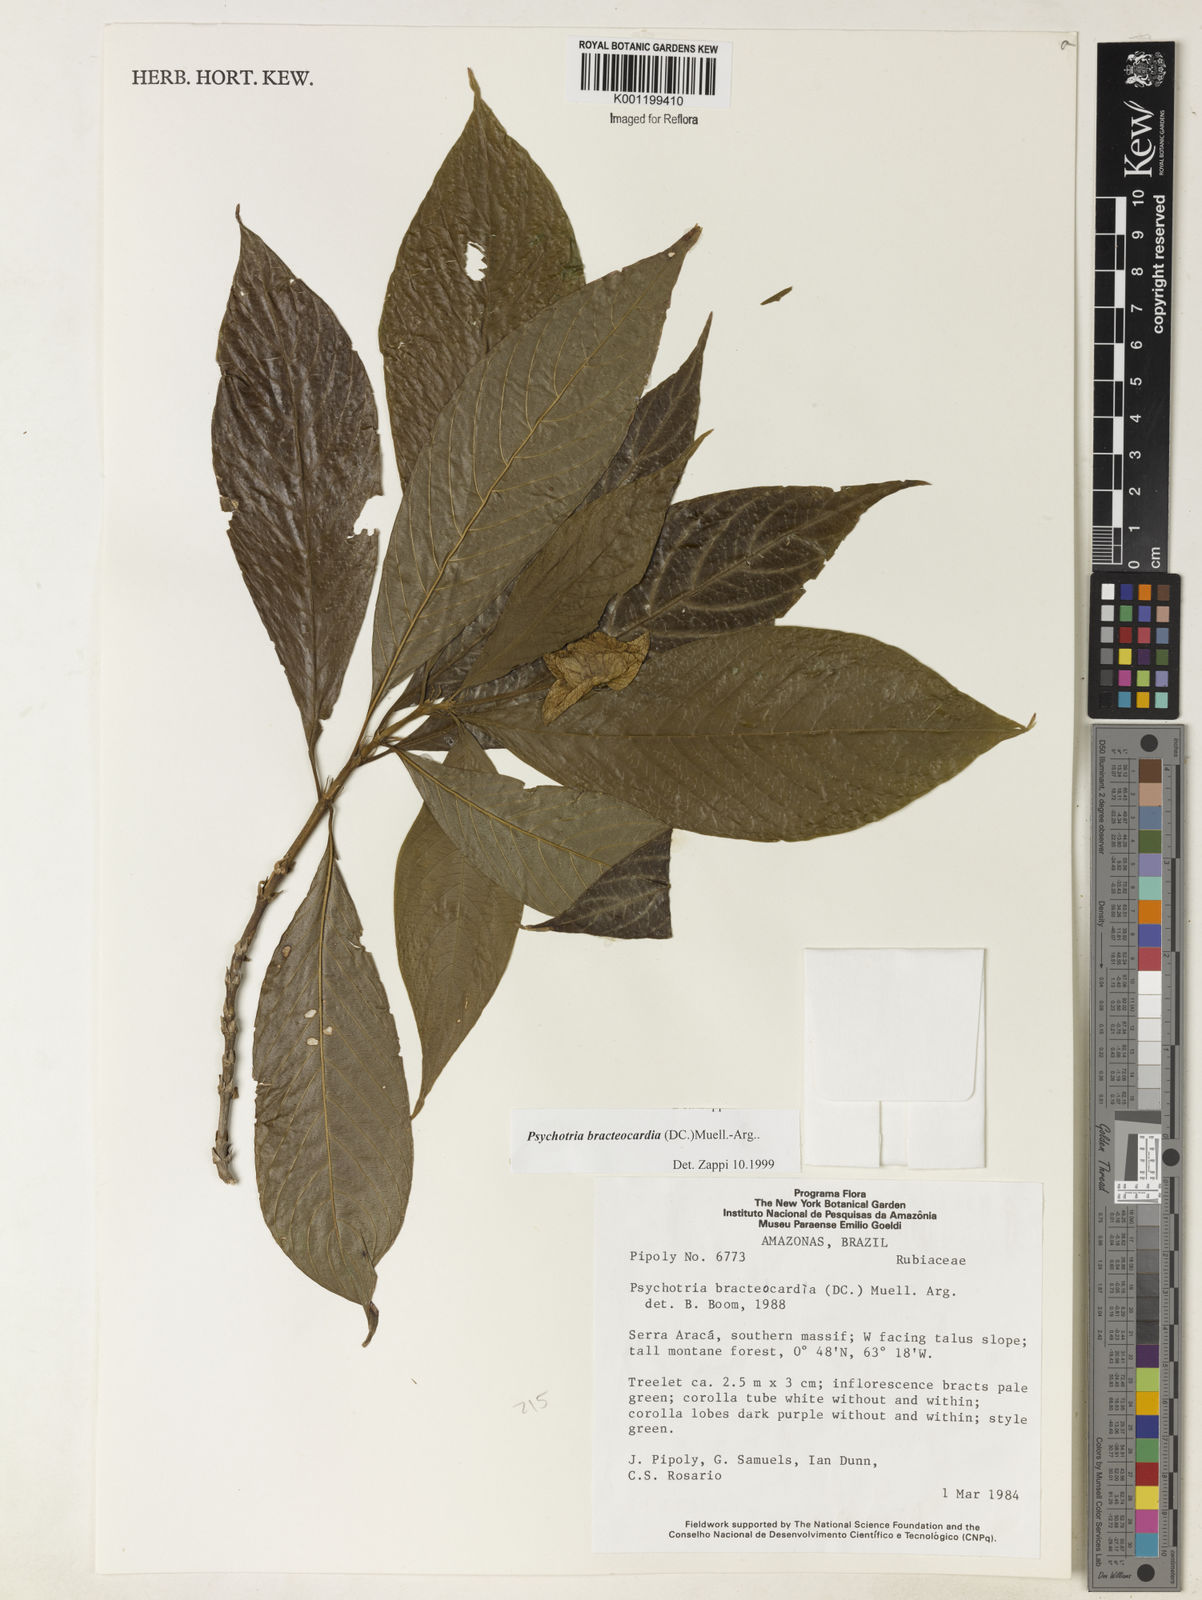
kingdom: Plantae
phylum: Tracheophyta
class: Magnoliopsida
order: Gentianales
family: Rubiaceae
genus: Psychotria
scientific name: Psychotria
